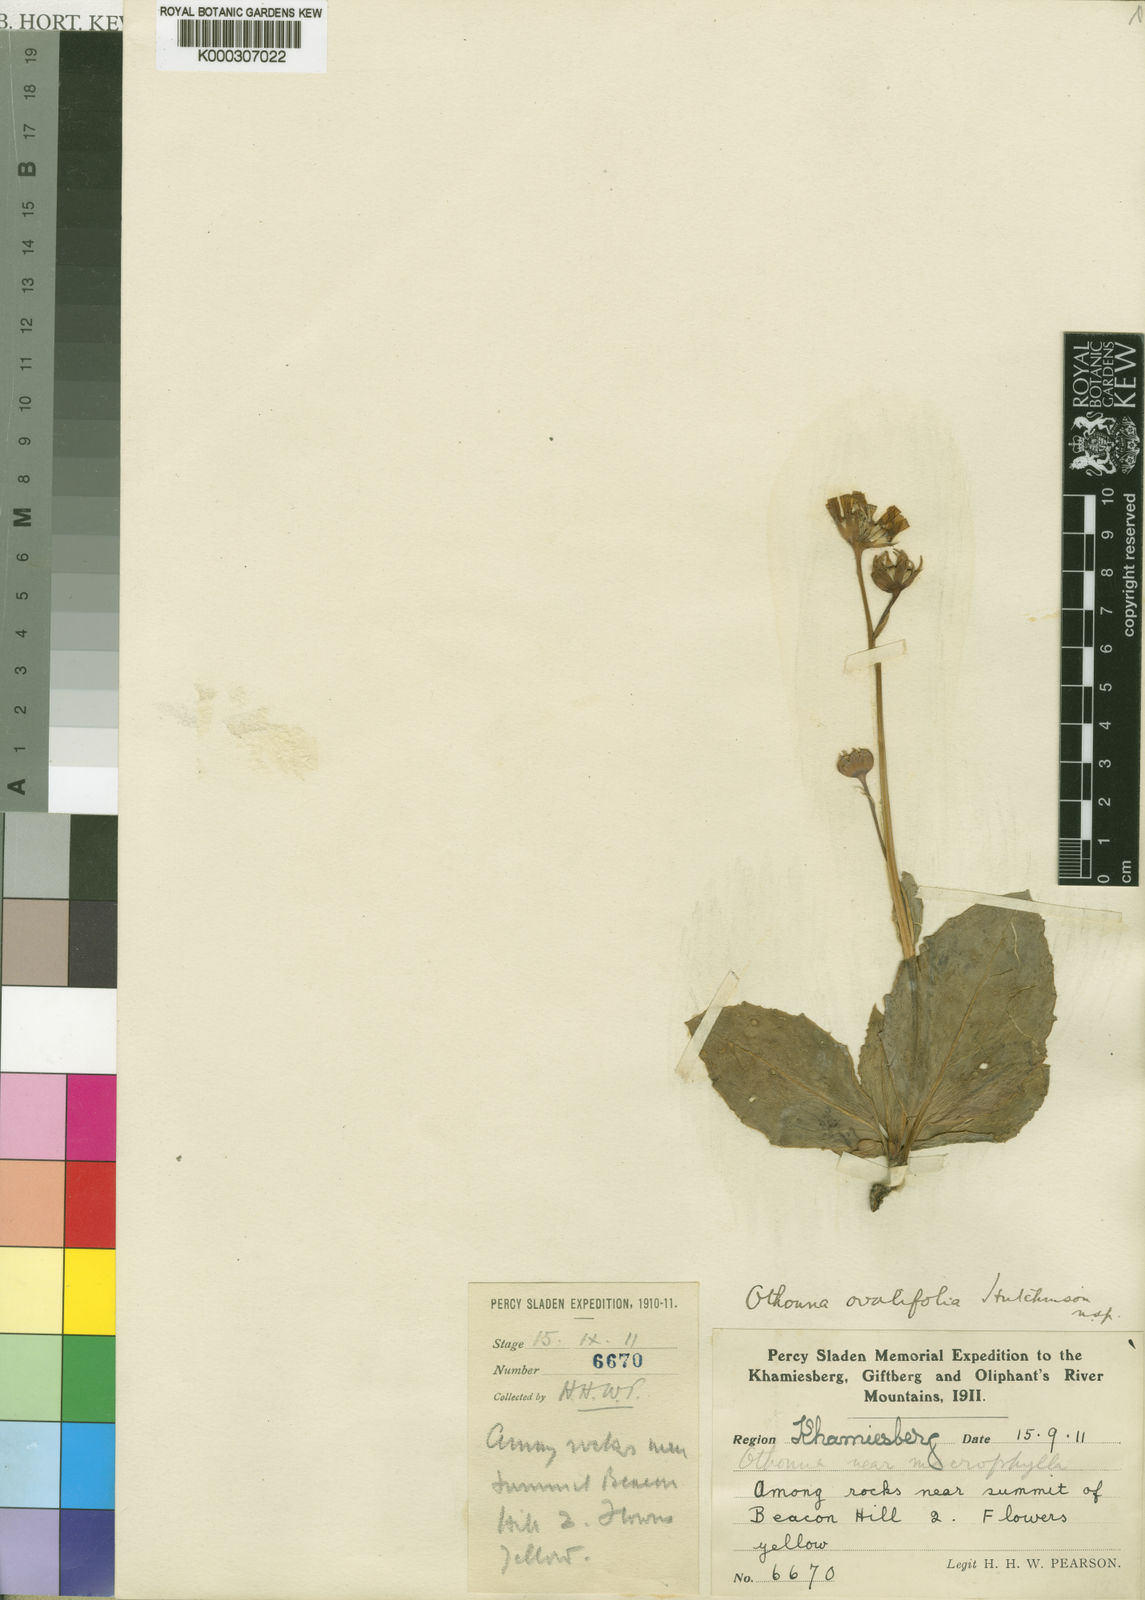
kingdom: Plantae
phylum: Tracheophyta
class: Magnoliopsida
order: Asterales
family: Asteraceae
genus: Othonna
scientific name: Othonna macrophylla
